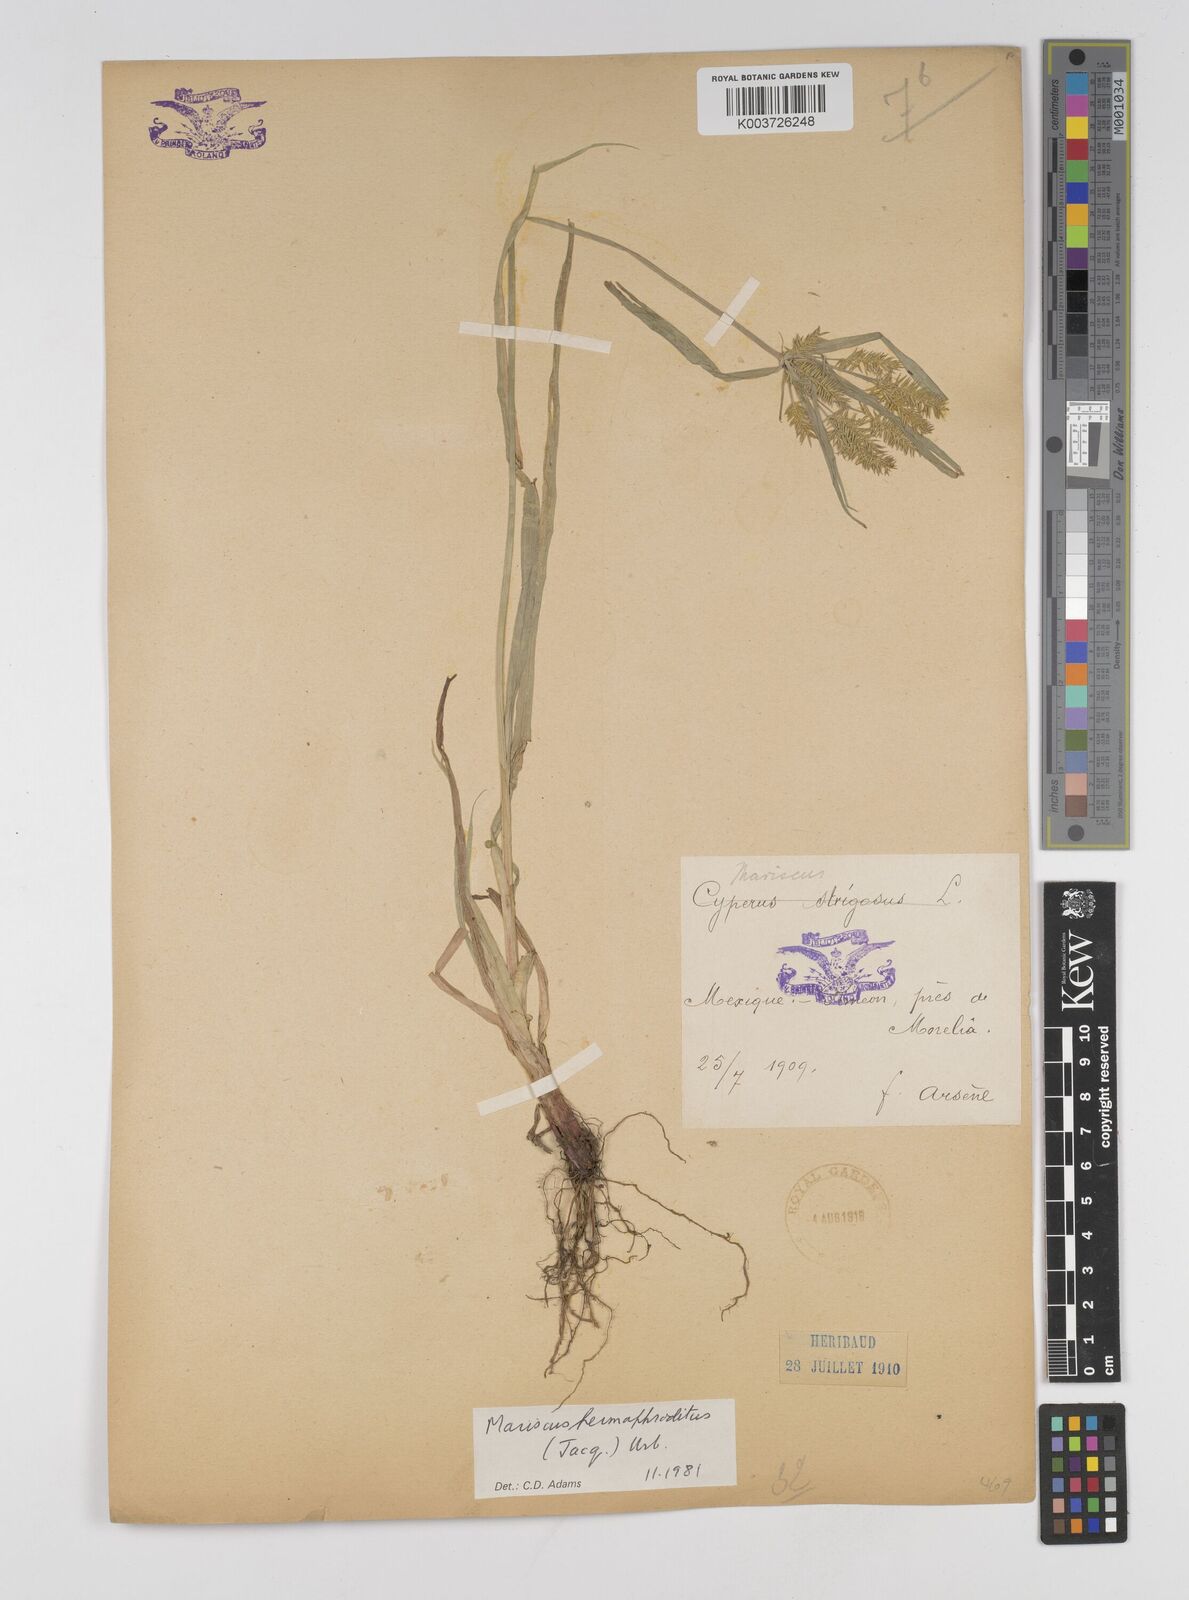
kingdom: Plantae
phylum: Tracheophyta
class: Liliopsida
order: Poales
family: Cyperaceae
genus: Cyperus
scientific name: Cyperus hermaphroditus
